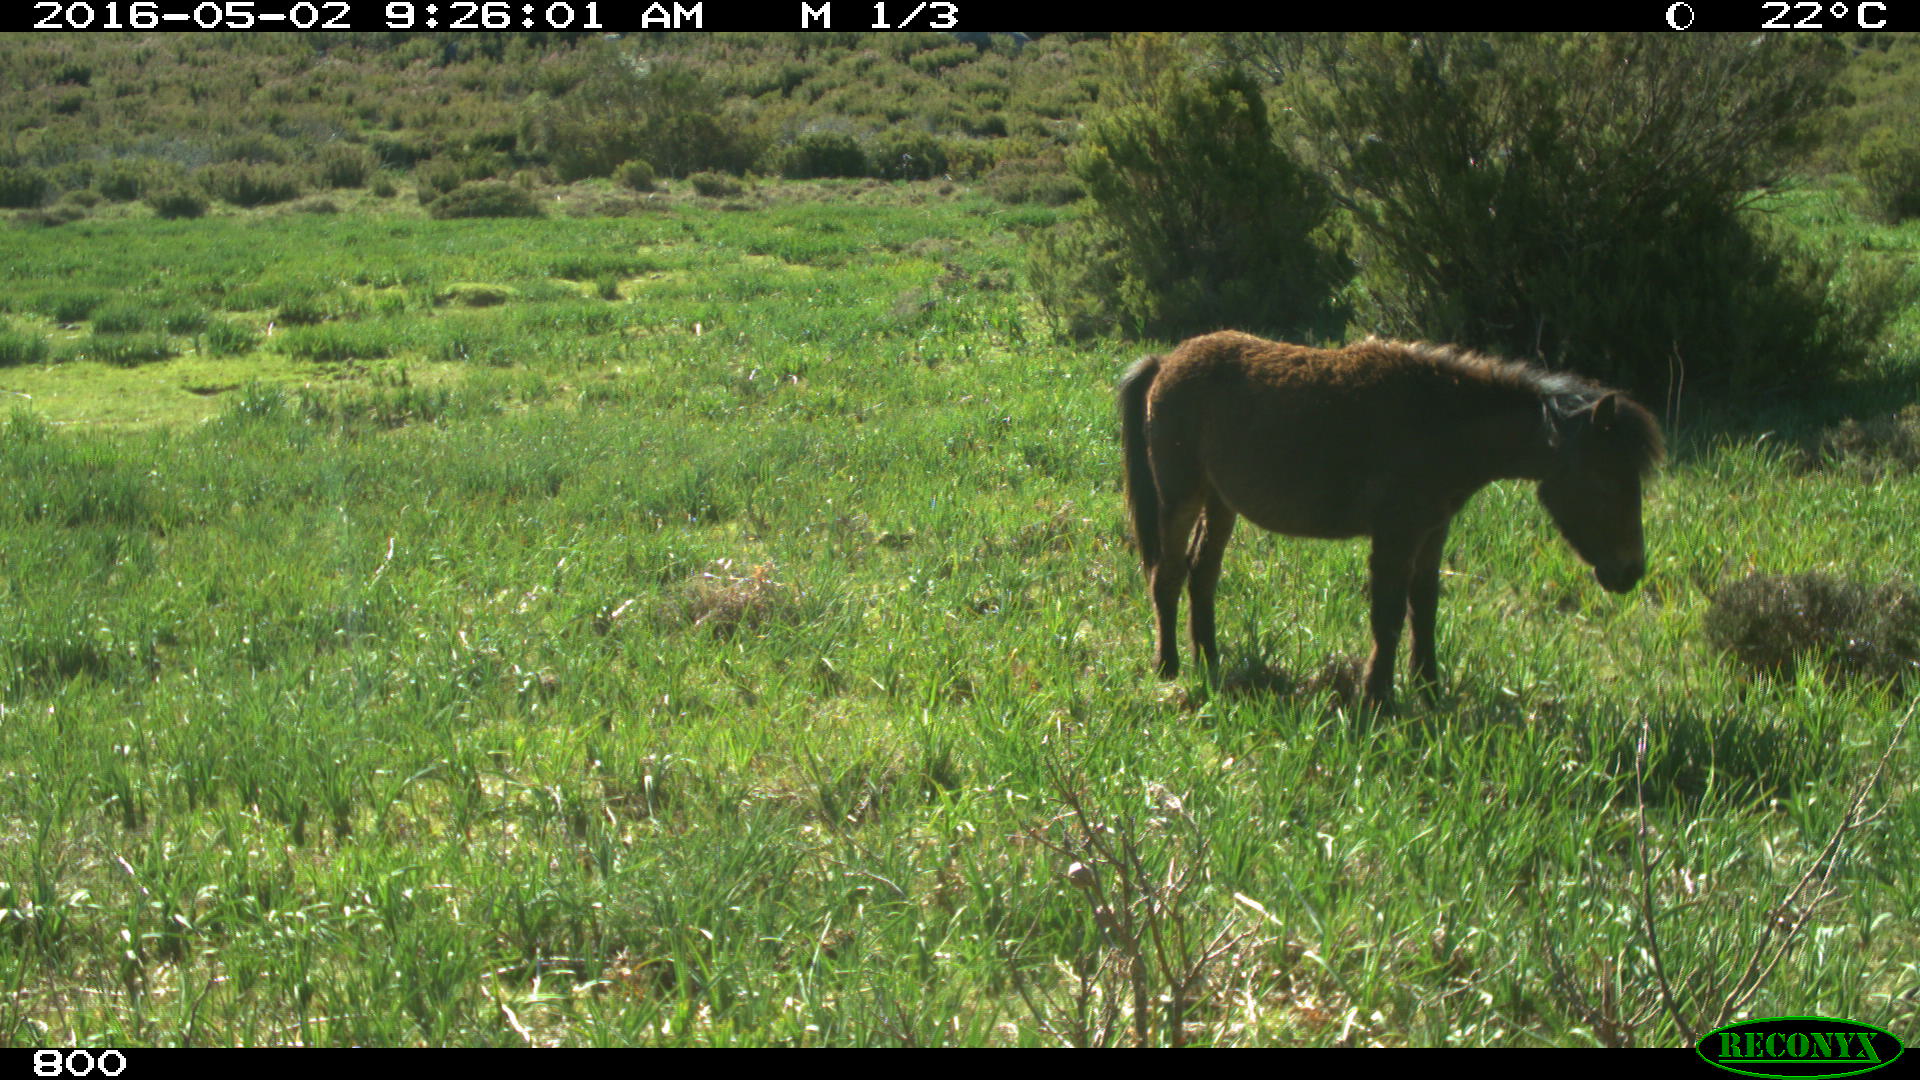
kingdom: Animalia
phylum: Chordata
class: Mammalia
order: Perissodactyla
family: Equidae
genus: Equus
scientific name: Equus caballus
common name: Horse
